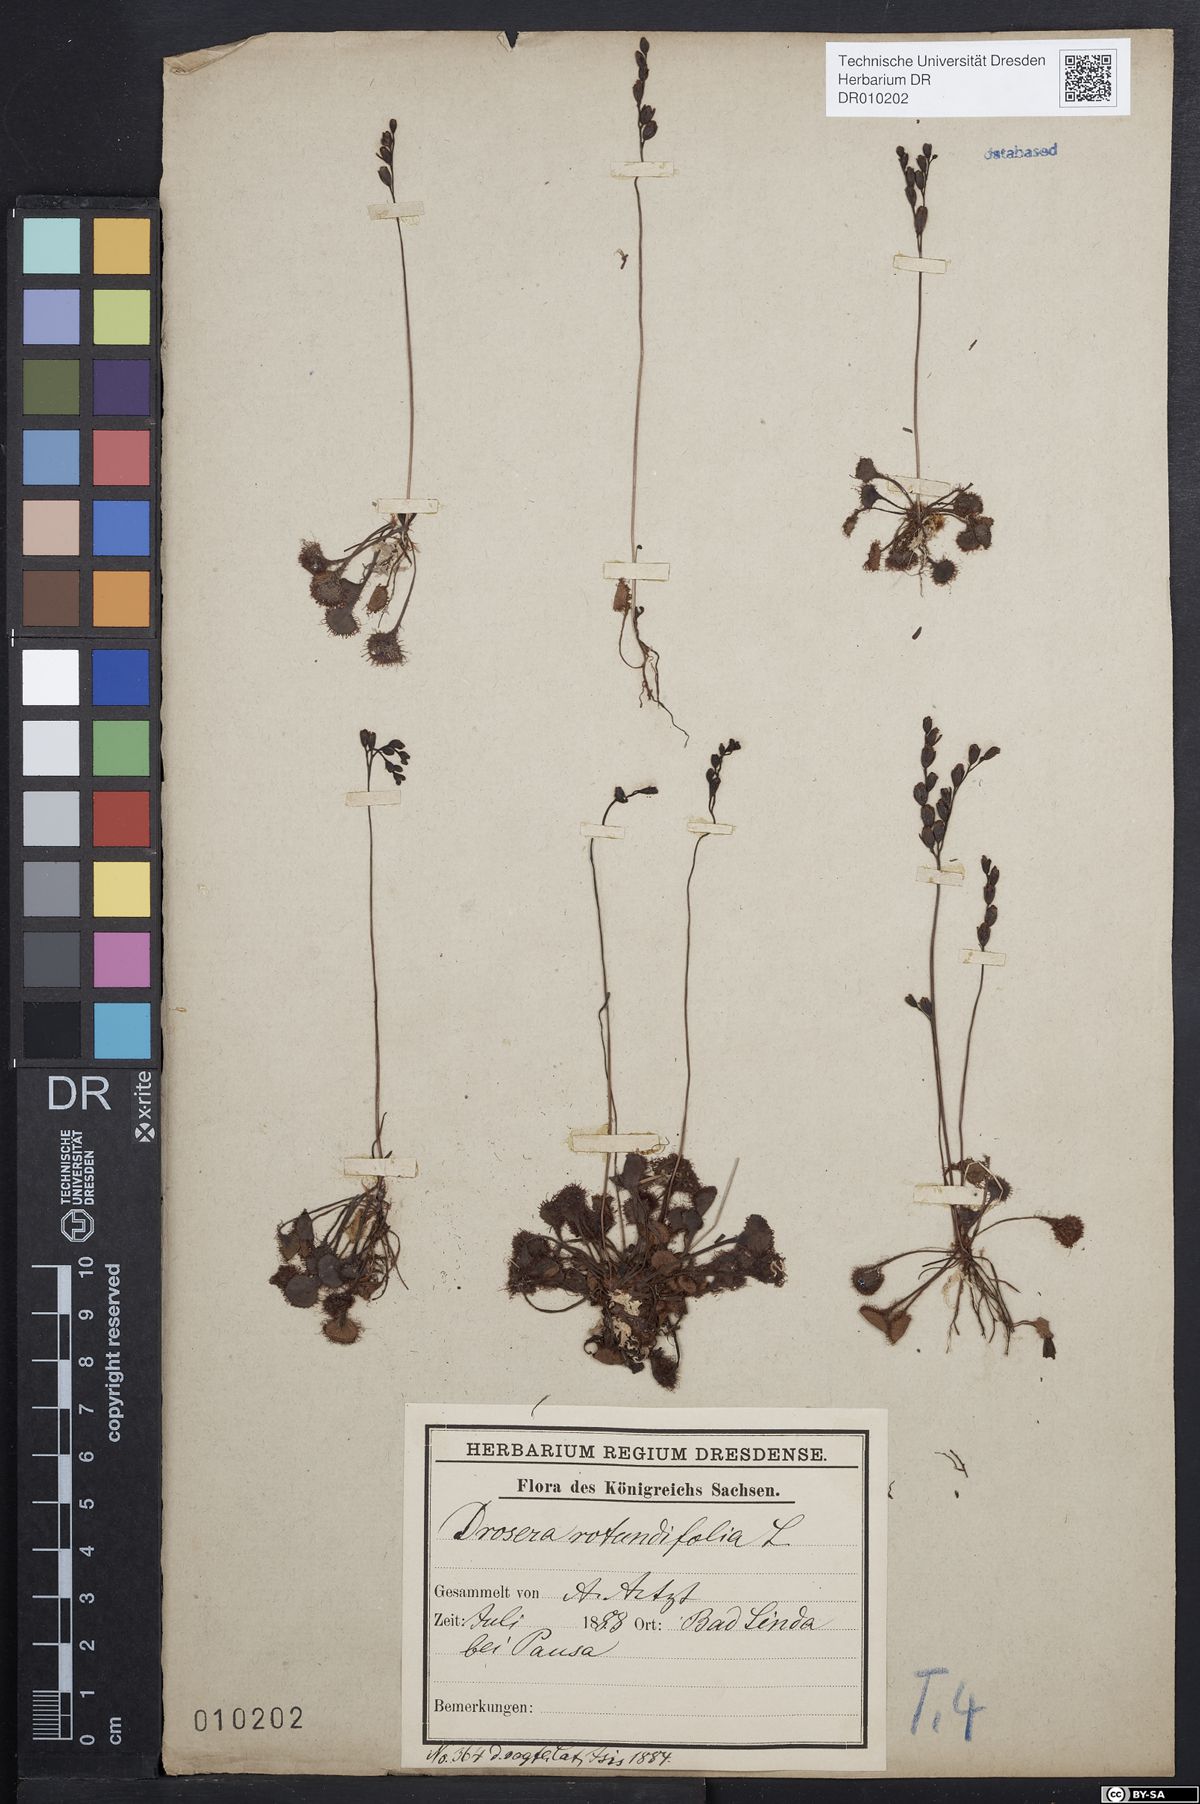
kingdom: Plantae
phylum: Tracheophyta
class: Magnoliopsida
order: Caryophyllales
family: Droseraceae
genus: Drosera
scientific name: Drosera rotundifolia
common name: Round-leaved sundew
